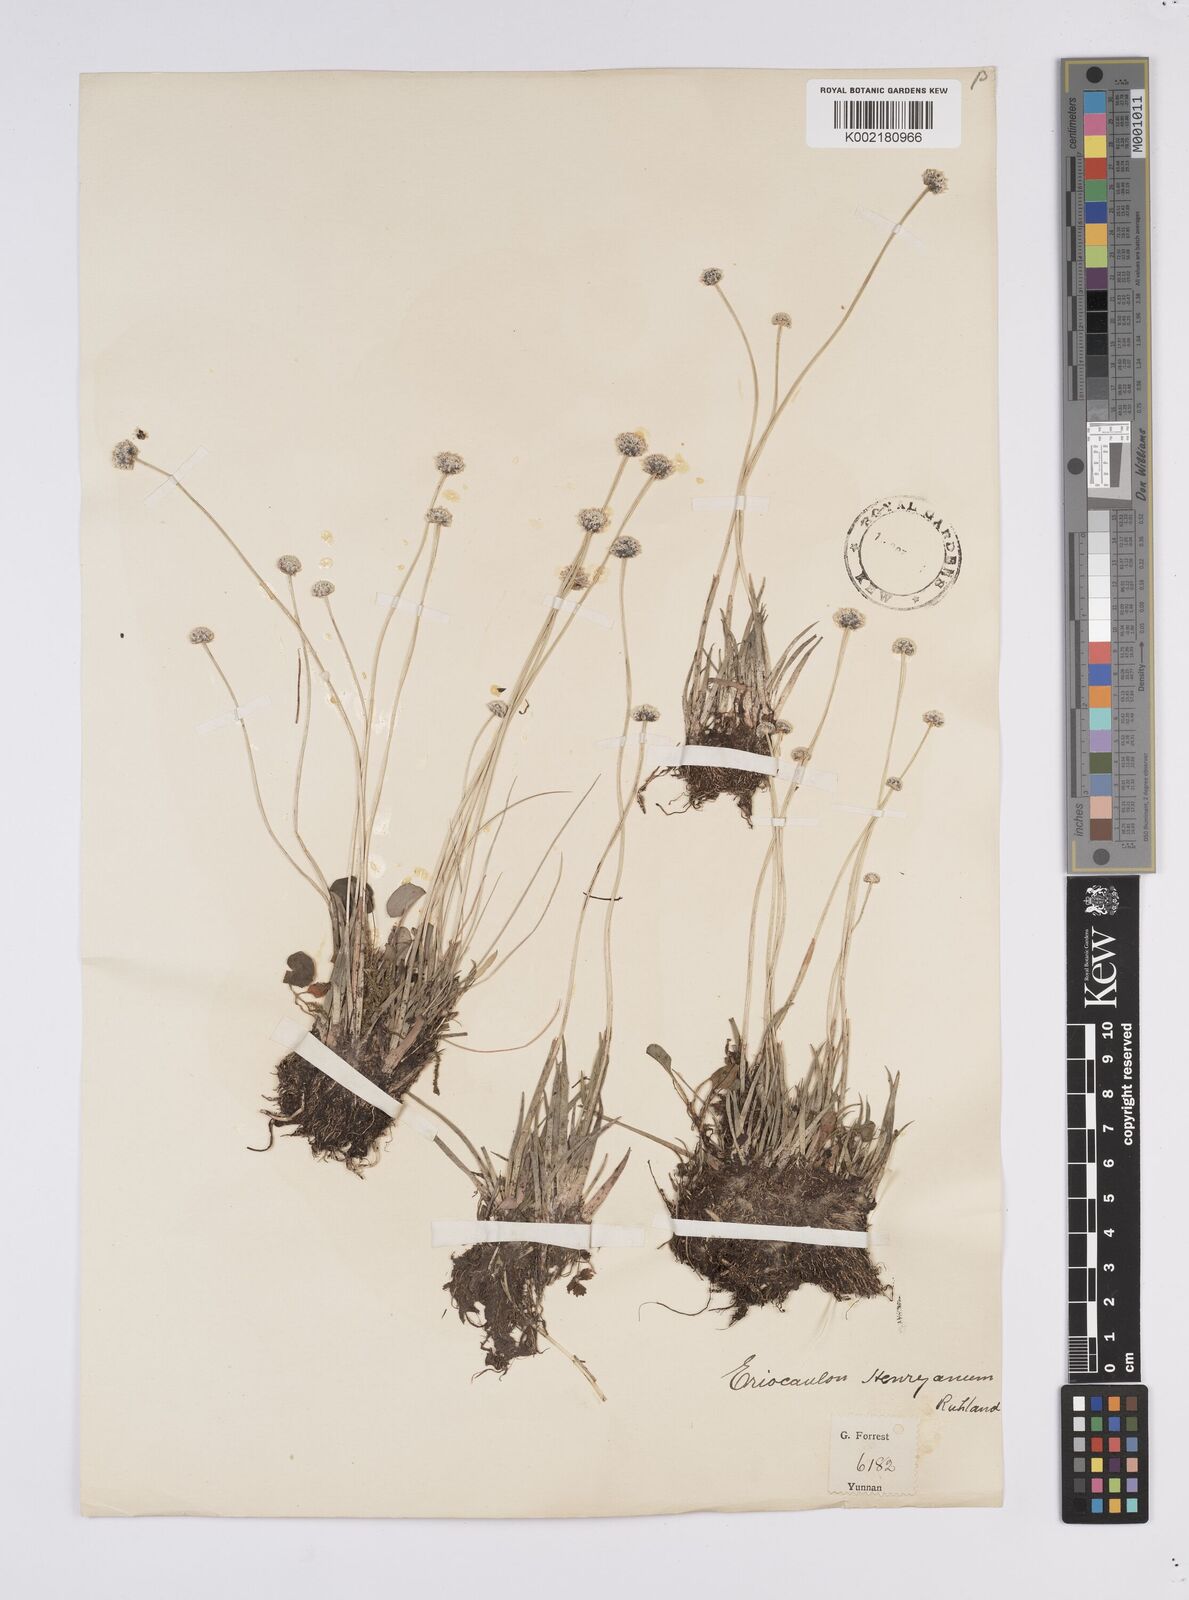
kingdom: Plantae
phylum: Tracheophyta
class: Liliopsida
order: Poales
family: Eriocaulaceae
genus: Eriocaulon
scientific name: Eriocaulon henryanum
